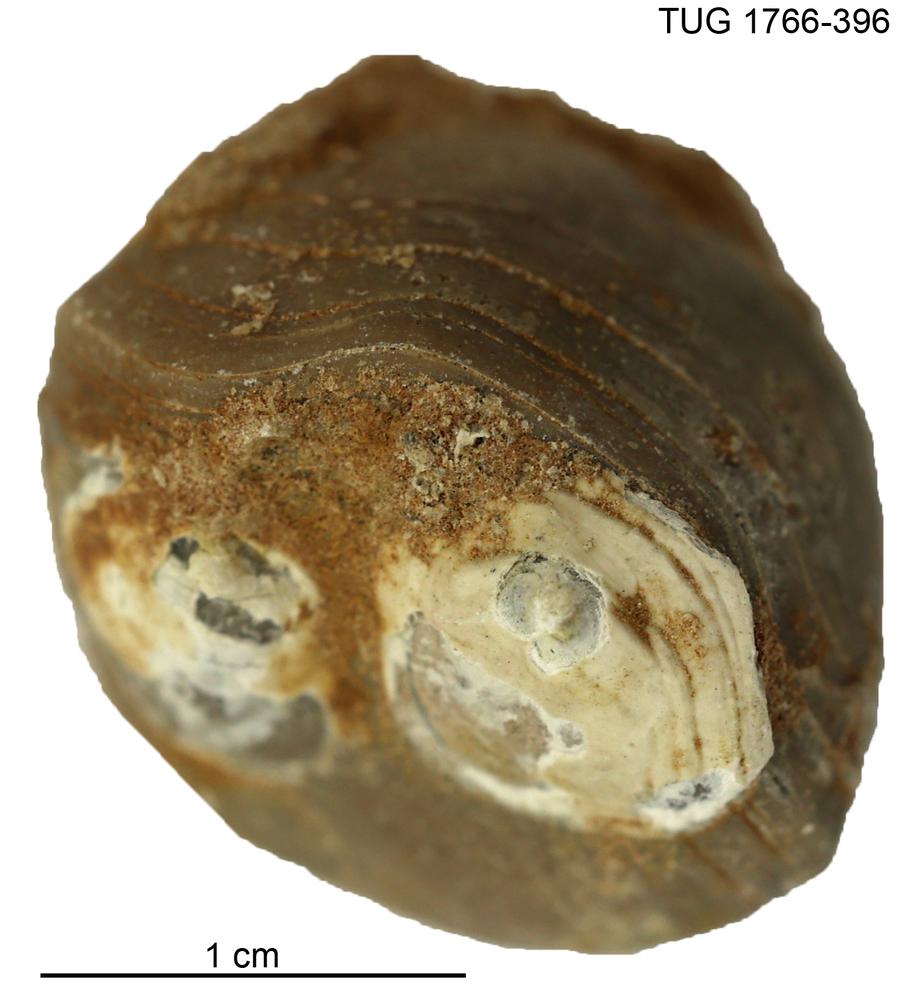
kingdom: Animalia
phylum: Brachiopoda
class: Rhynchonellata
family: Porambonitidae
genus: Porambonites
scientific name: Porambonites
